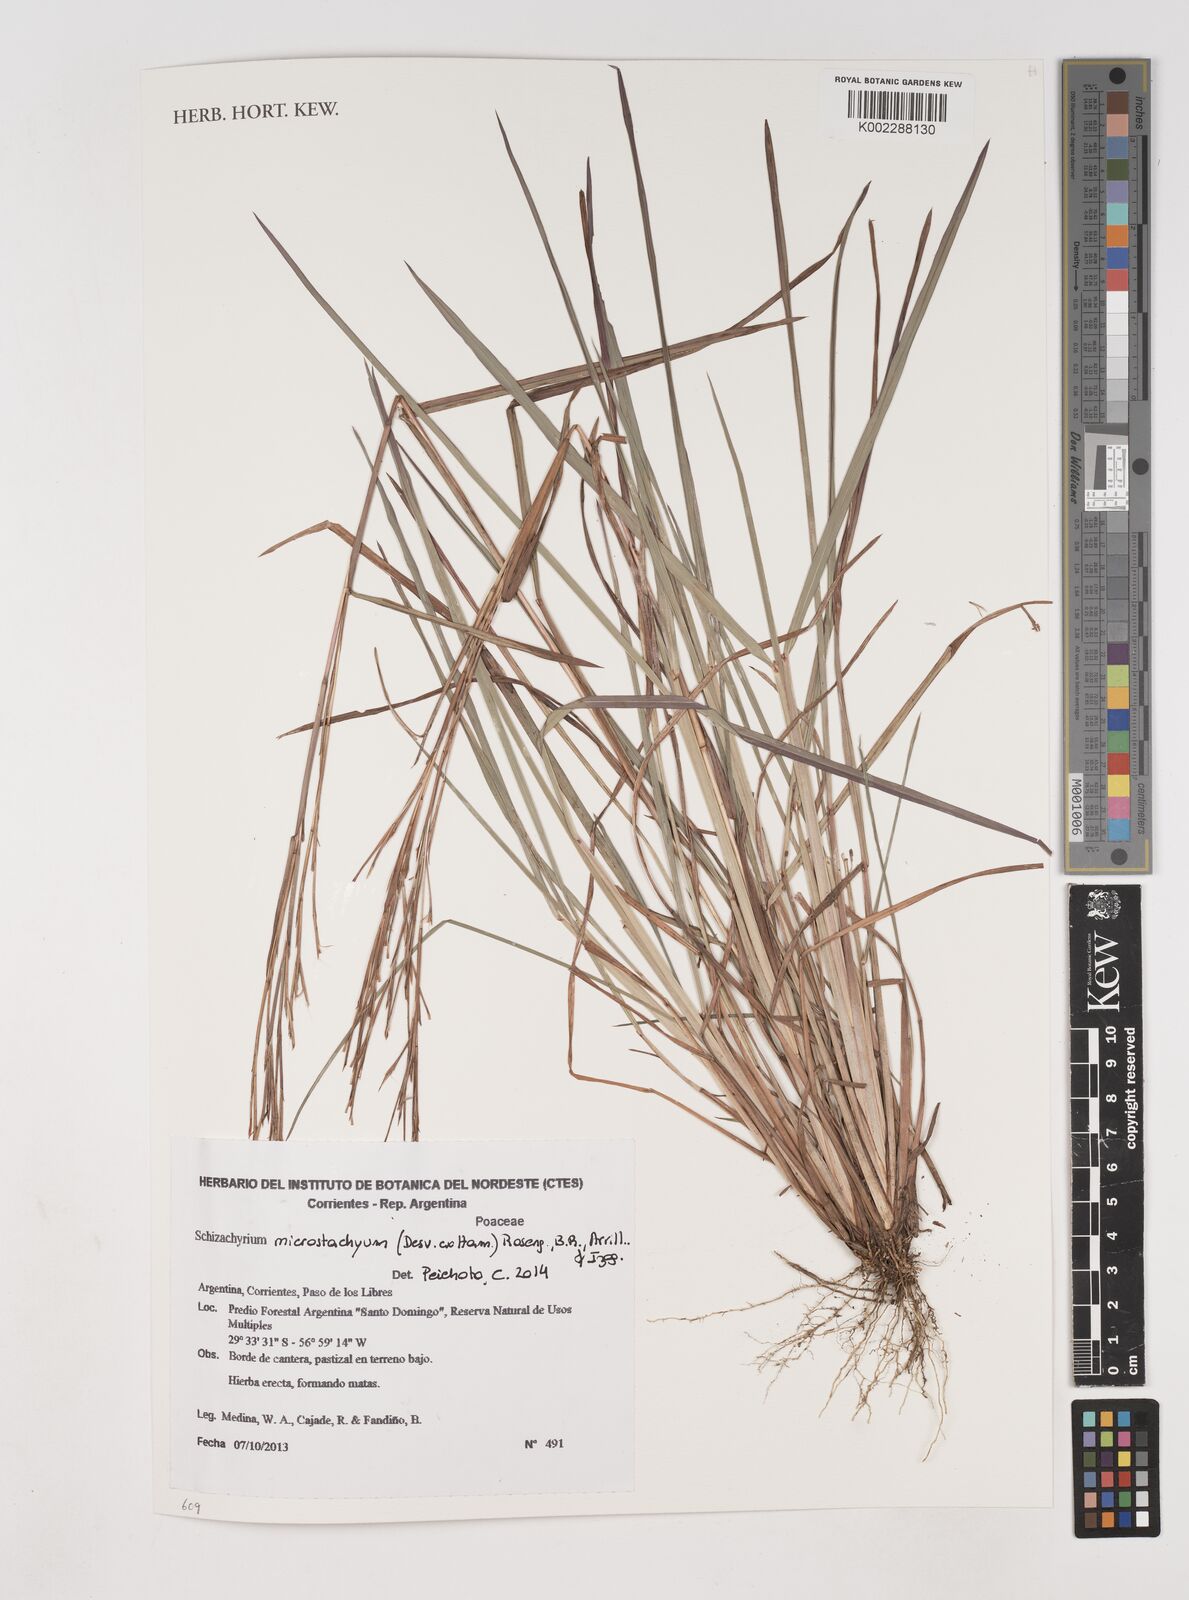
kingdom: Plantae
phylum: Tracheophyta
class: Liliopsida
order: Poales
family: Poaceae
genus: Schizachyrium
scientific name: Schizachyrium microstachyum
